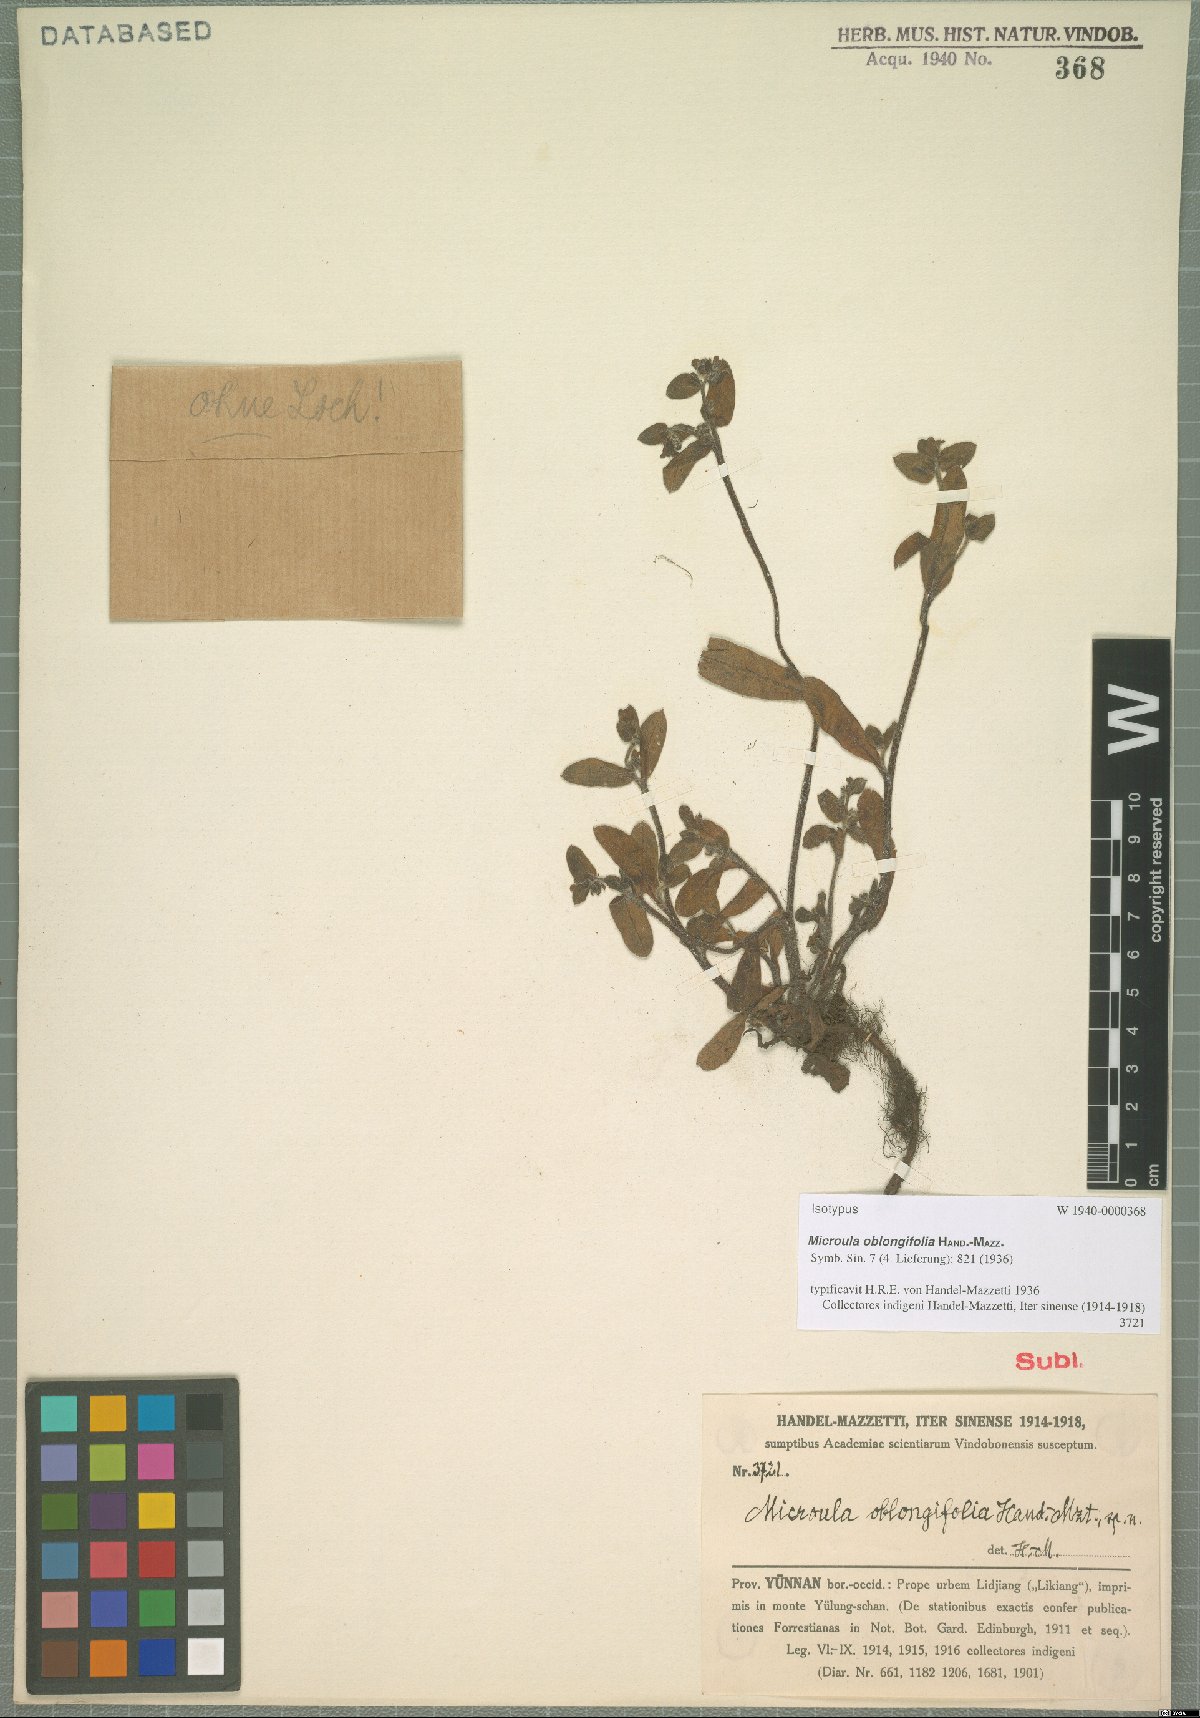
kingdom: Plantae
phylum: Tracheophyta
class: Magnoliopsida
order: Boraginales
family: Boraginaceae
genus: Microula
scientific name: Microula oblongifolia
